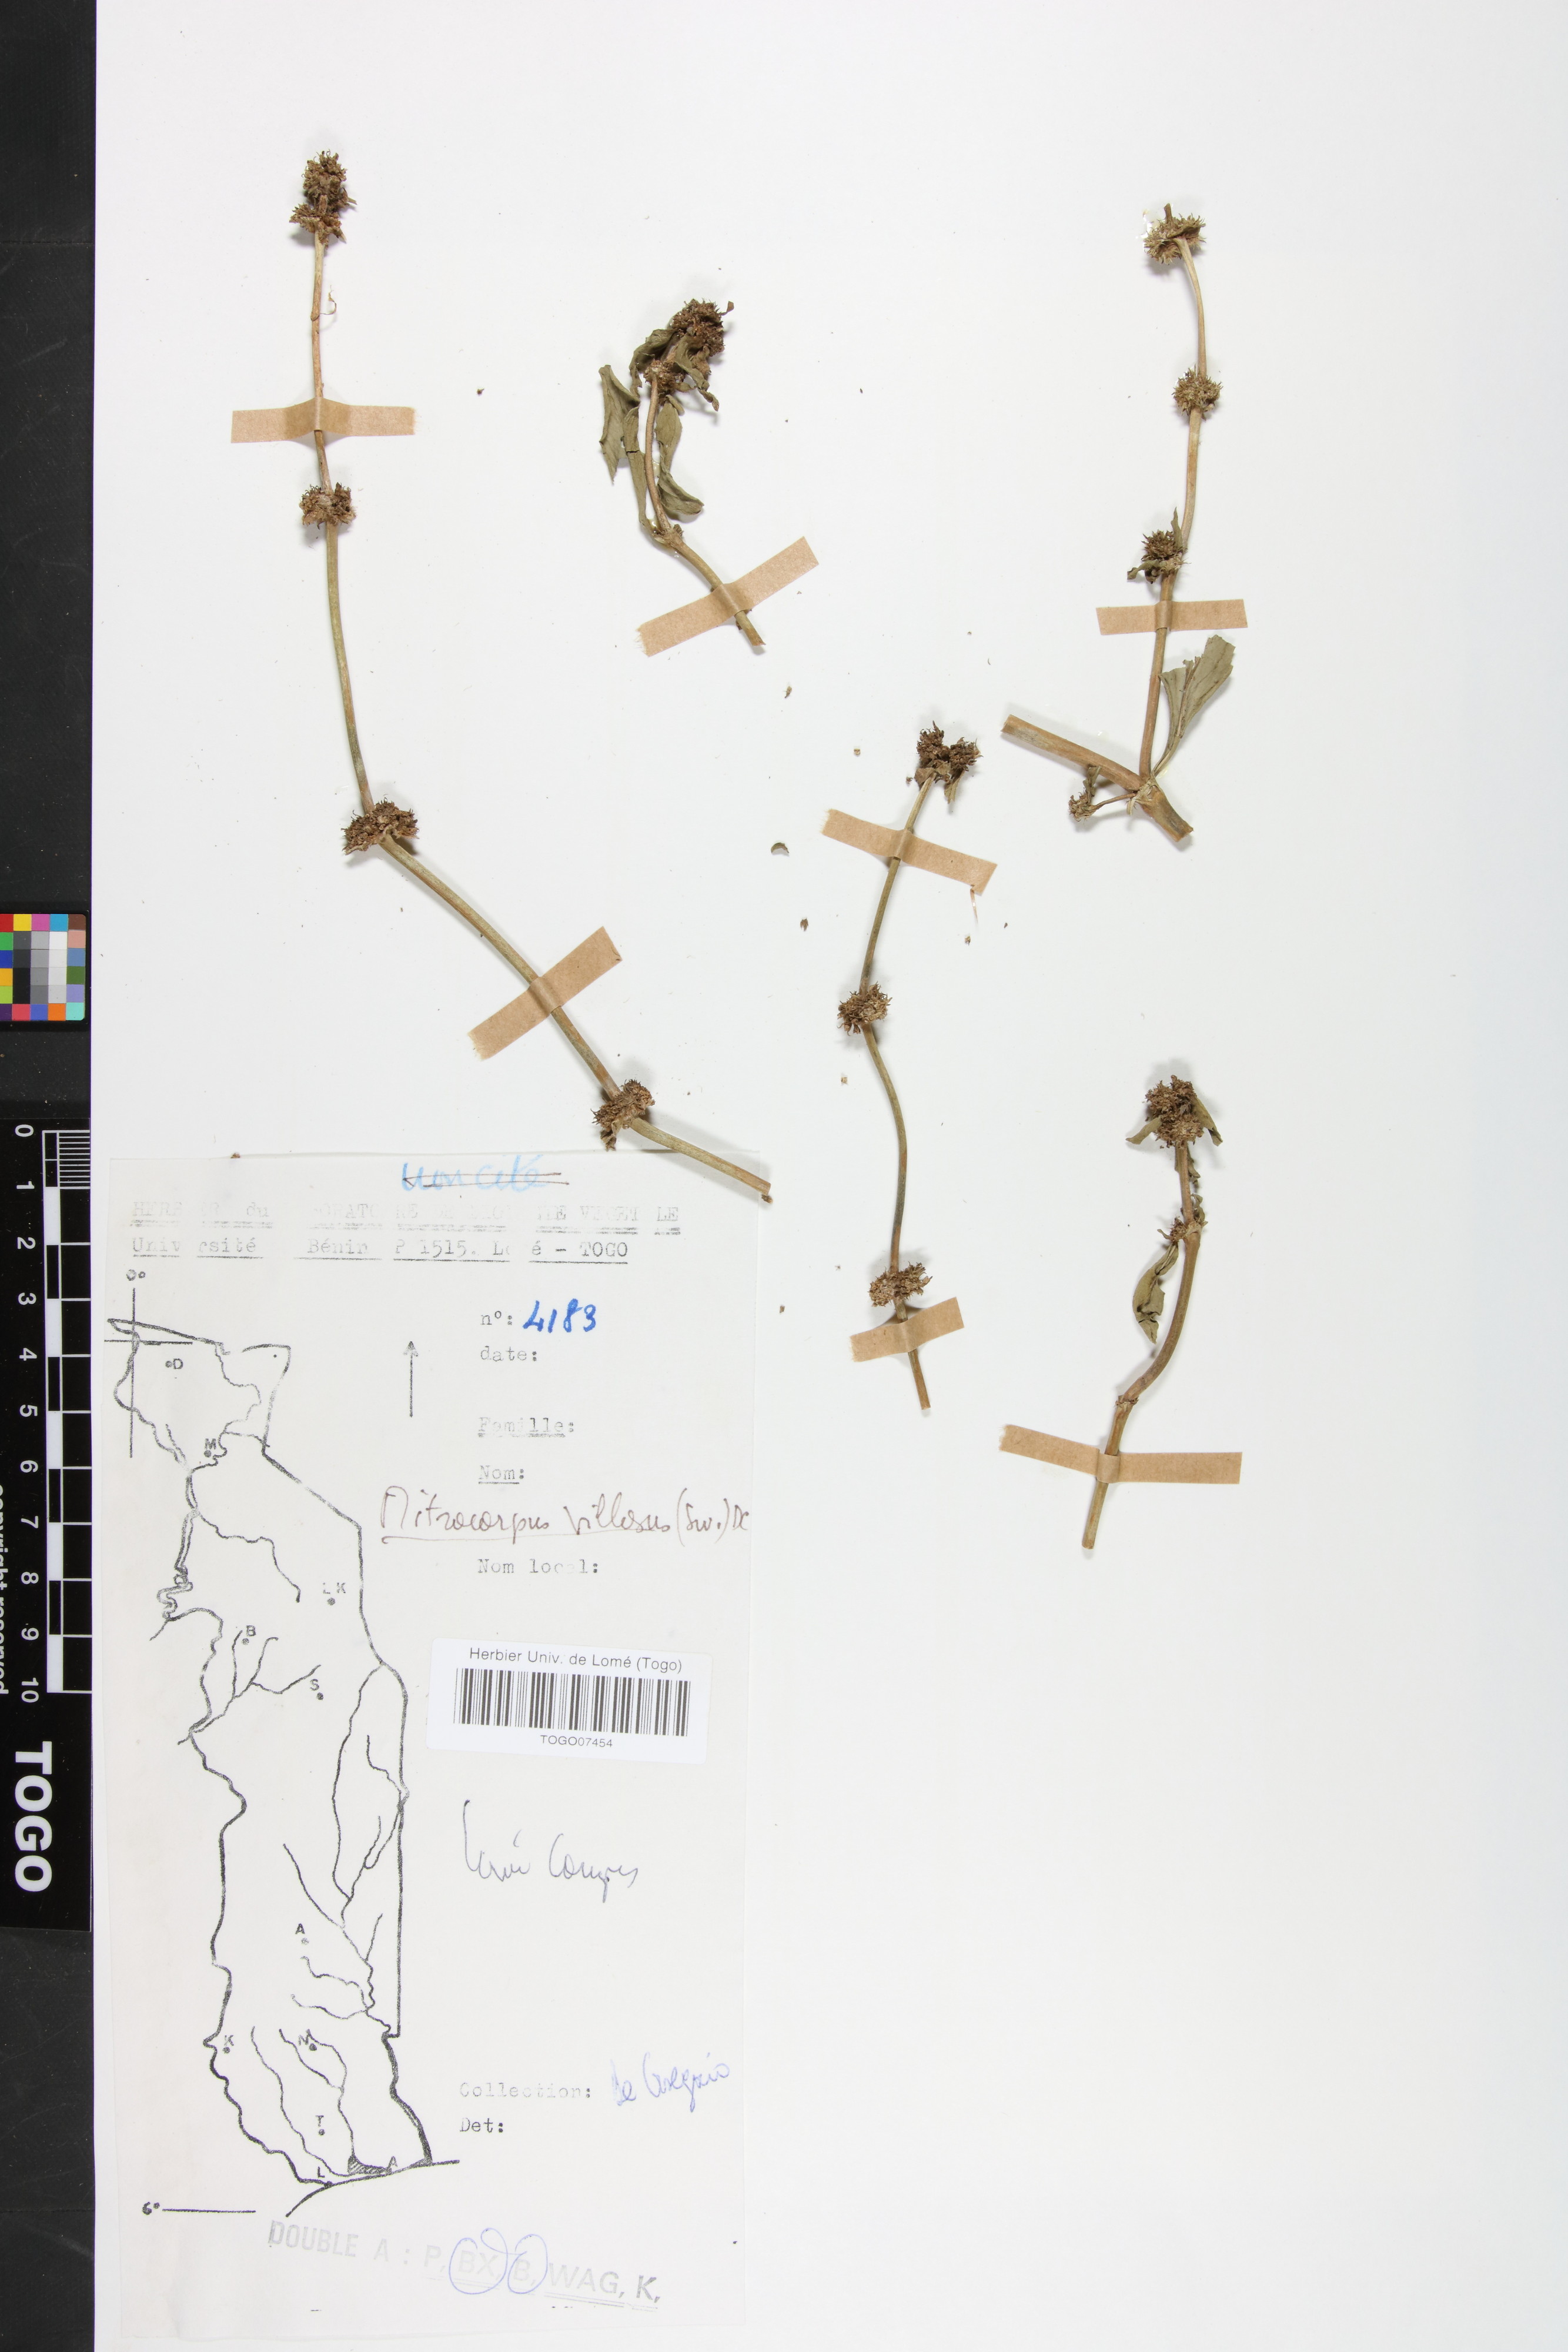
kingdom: Plantae
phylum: Tracheophyta
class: Magnoliopsida
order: Gentianales
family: Rubiaceae
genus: Mitracarpus
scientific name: Mitracarpus hirtus
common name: Tropical girdlepod
